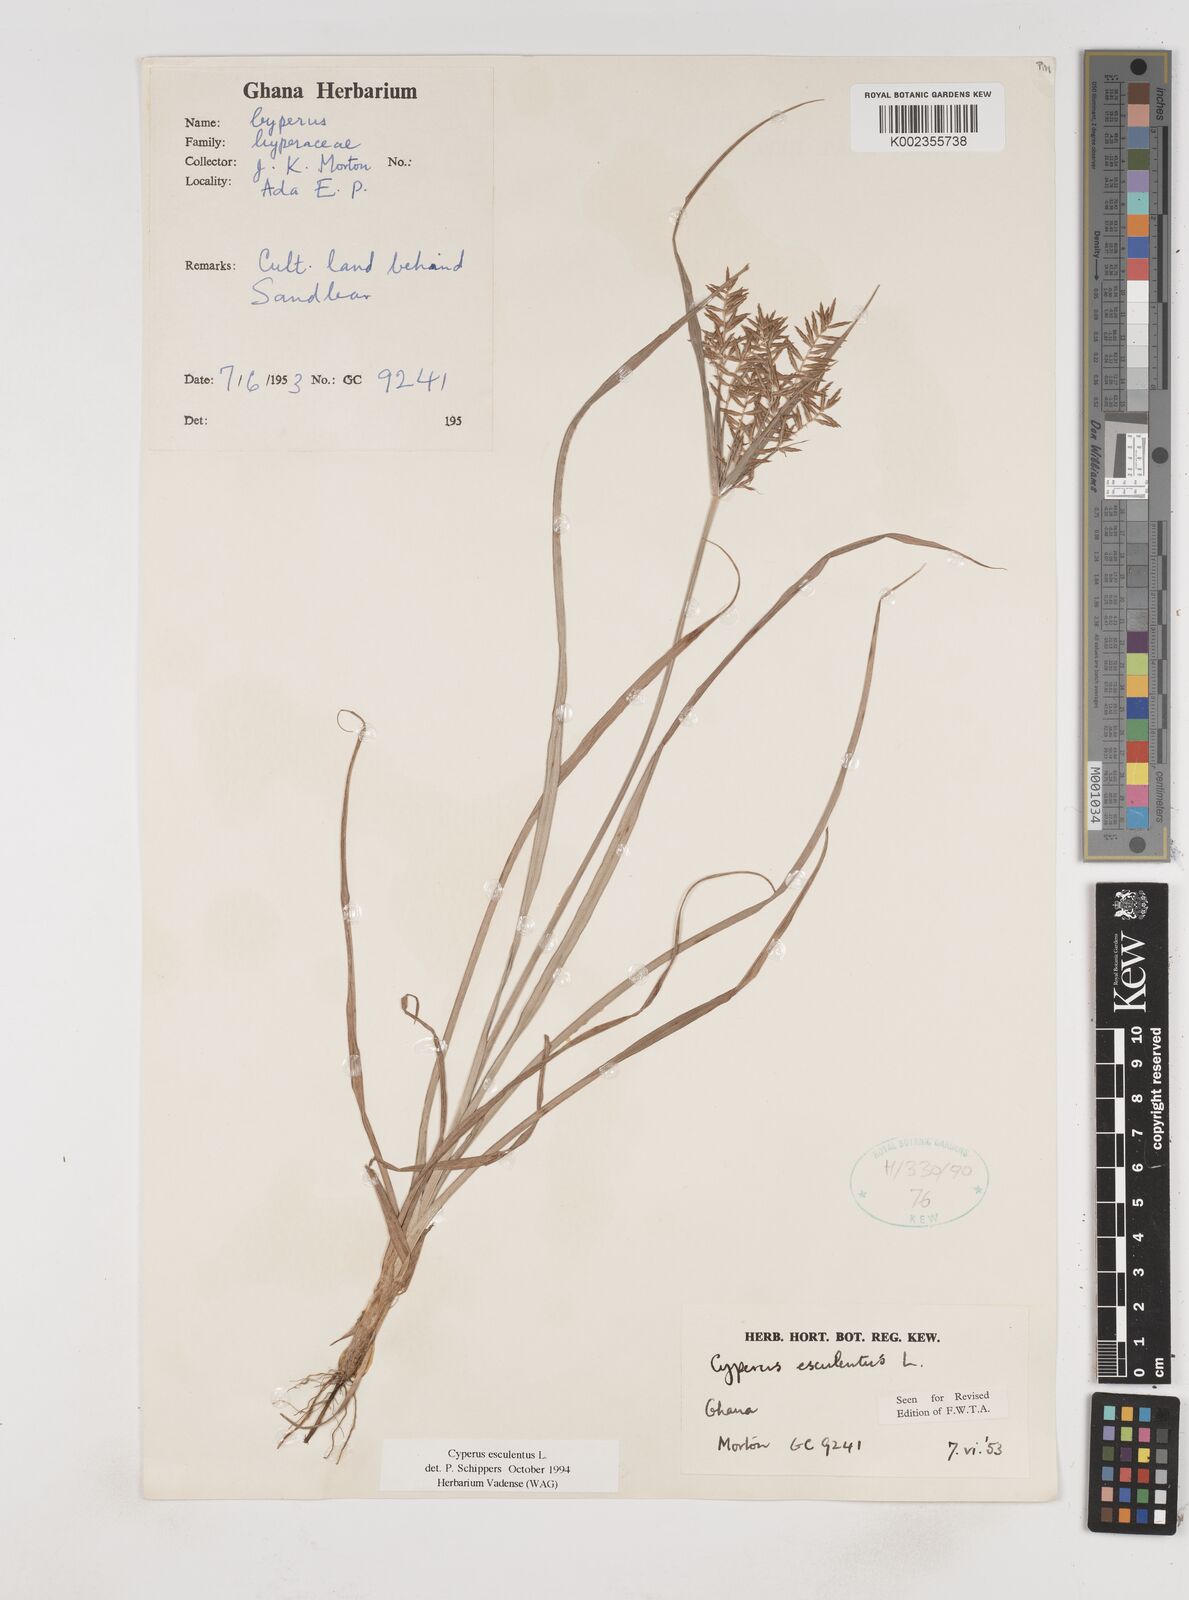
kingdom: Plantae
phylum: Tracheophyta
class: Liliopsida
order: Poales
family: Cyperaceae
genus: Cyperus
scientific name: Cyperus esculentus
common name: Yellow nutsedge
